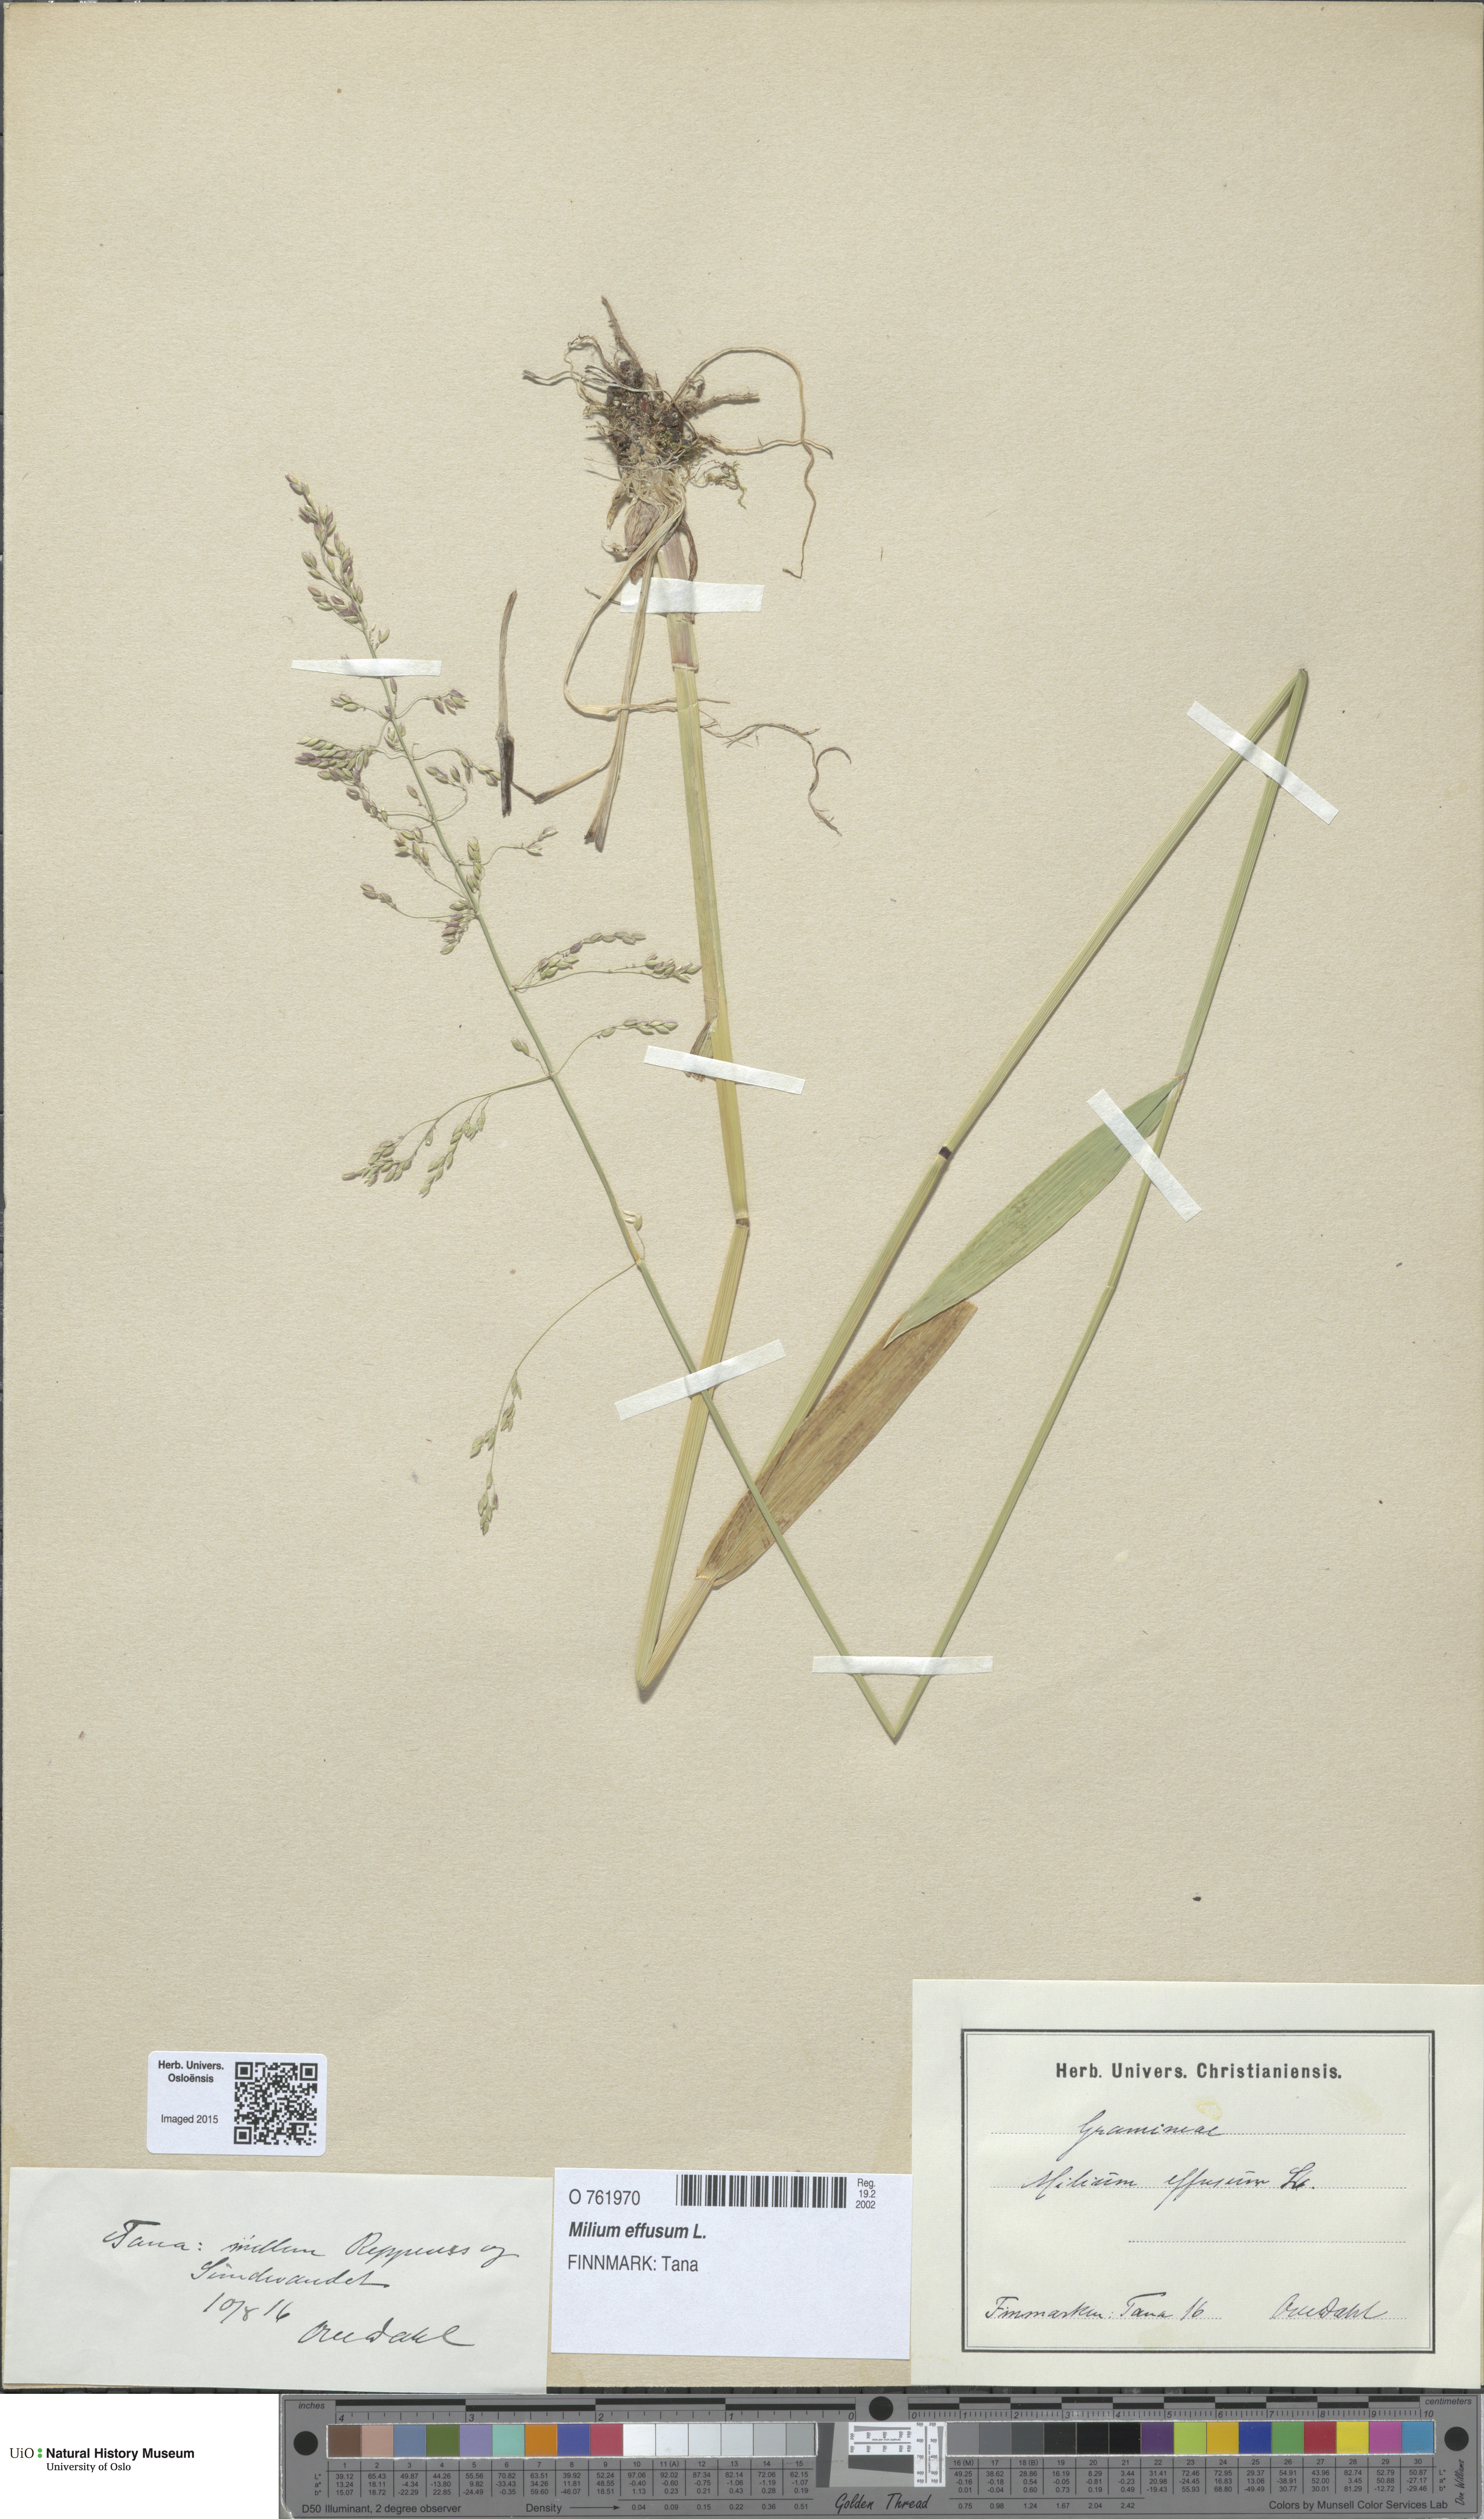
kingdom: Plantae
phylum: Tracheophyta
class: Liliopsida
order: Poales
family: Poaceae
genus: Milium
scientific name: Milium effusum
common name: Wood millet
